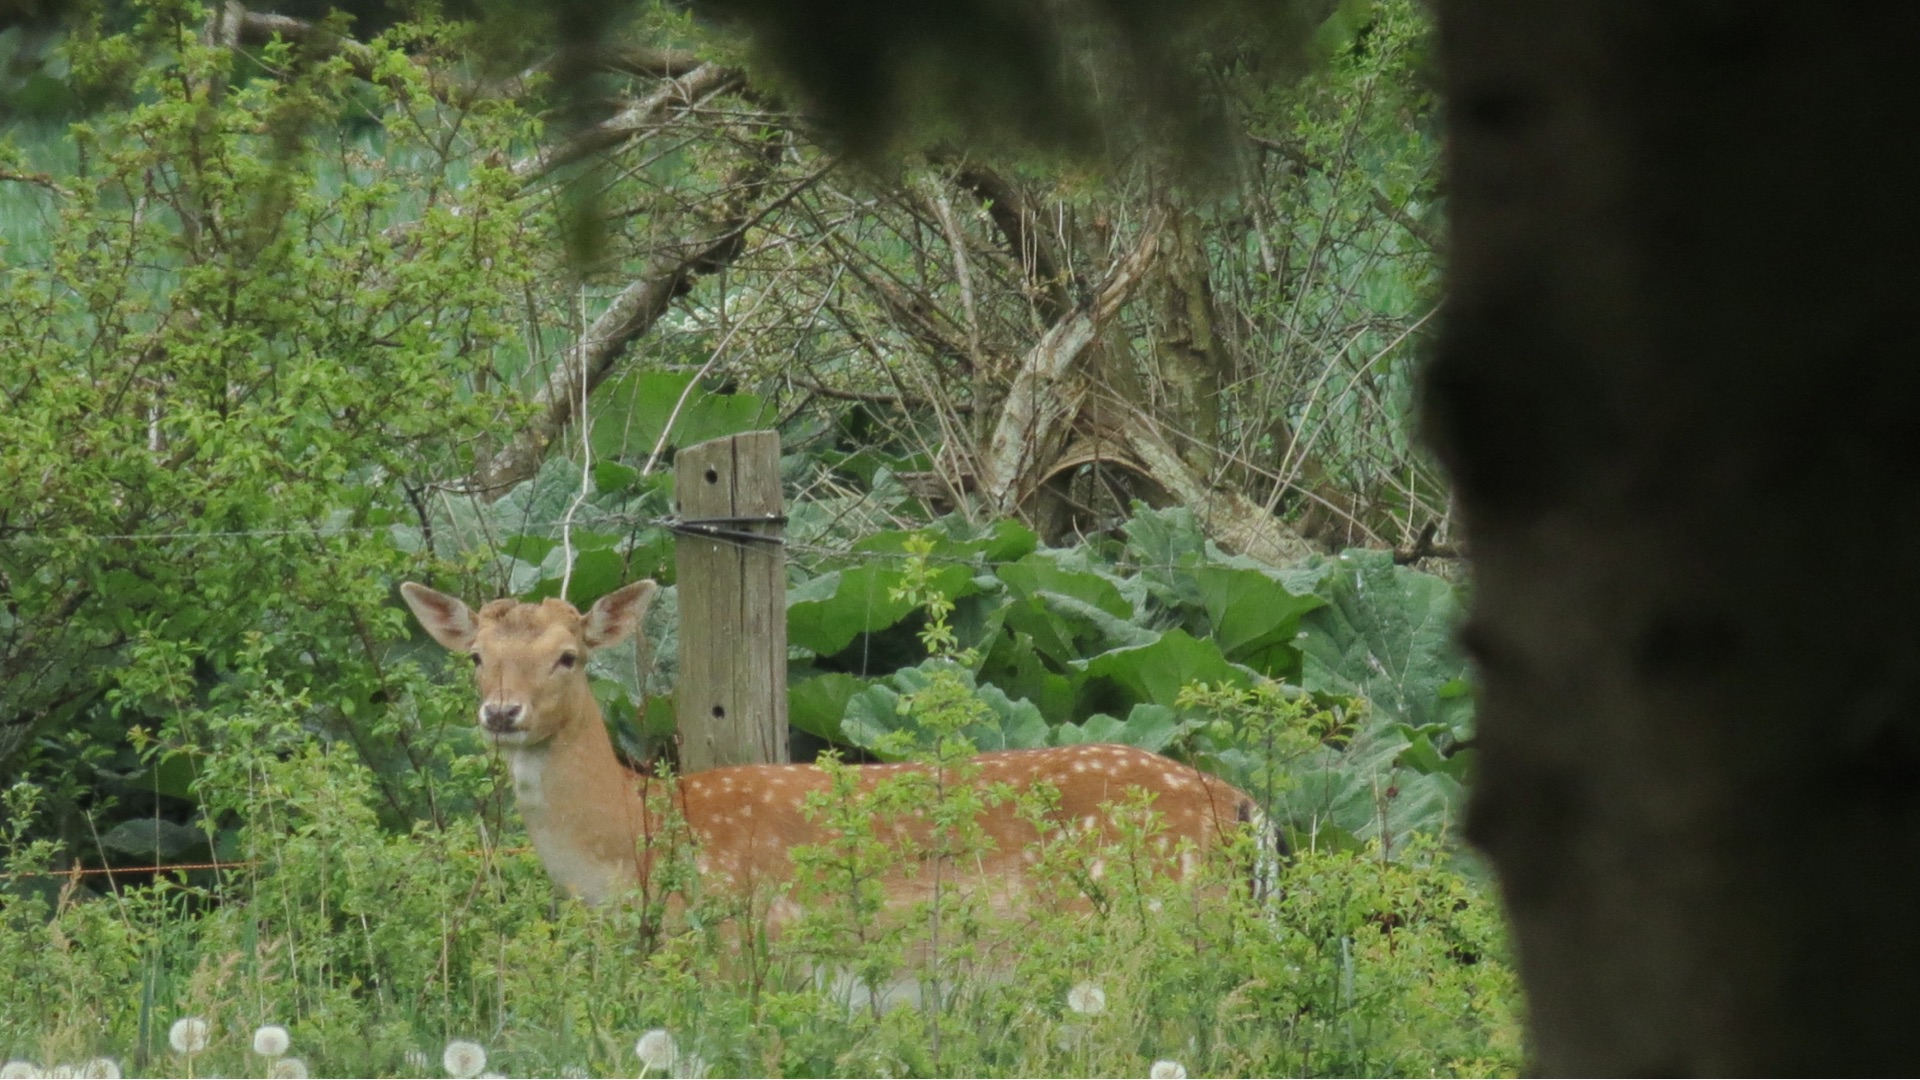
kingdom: Animalia
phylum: Chordata
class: Mammalia
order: Artiodactyla
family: Cervidae
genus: Dama
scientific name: Dama dama
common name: Dådyr
